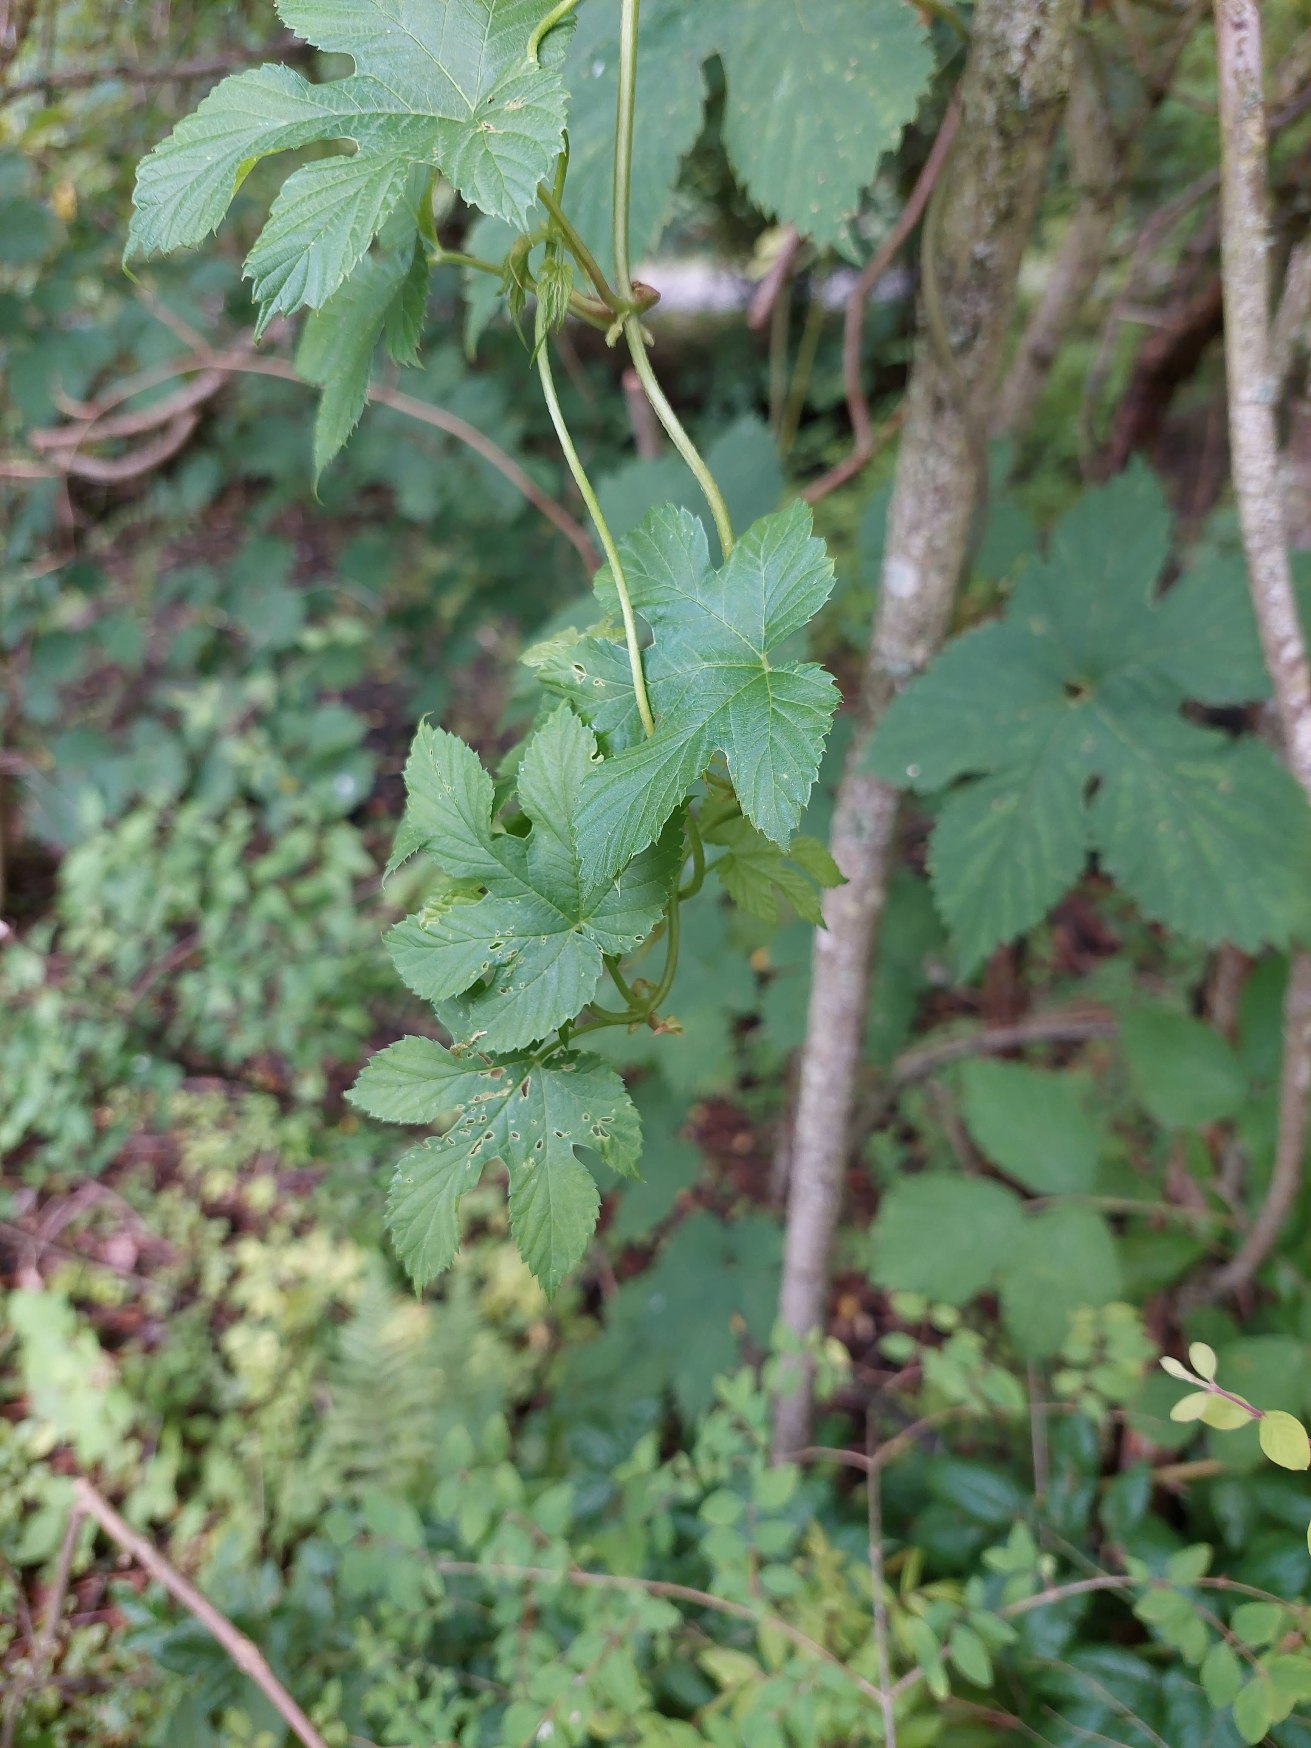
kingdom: Plantae
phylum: Tracheophyta
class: Magnoliopsida
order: Rosales
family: Cannabaceae
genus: Humulus
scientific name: Humulus lupulus
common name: Humle
